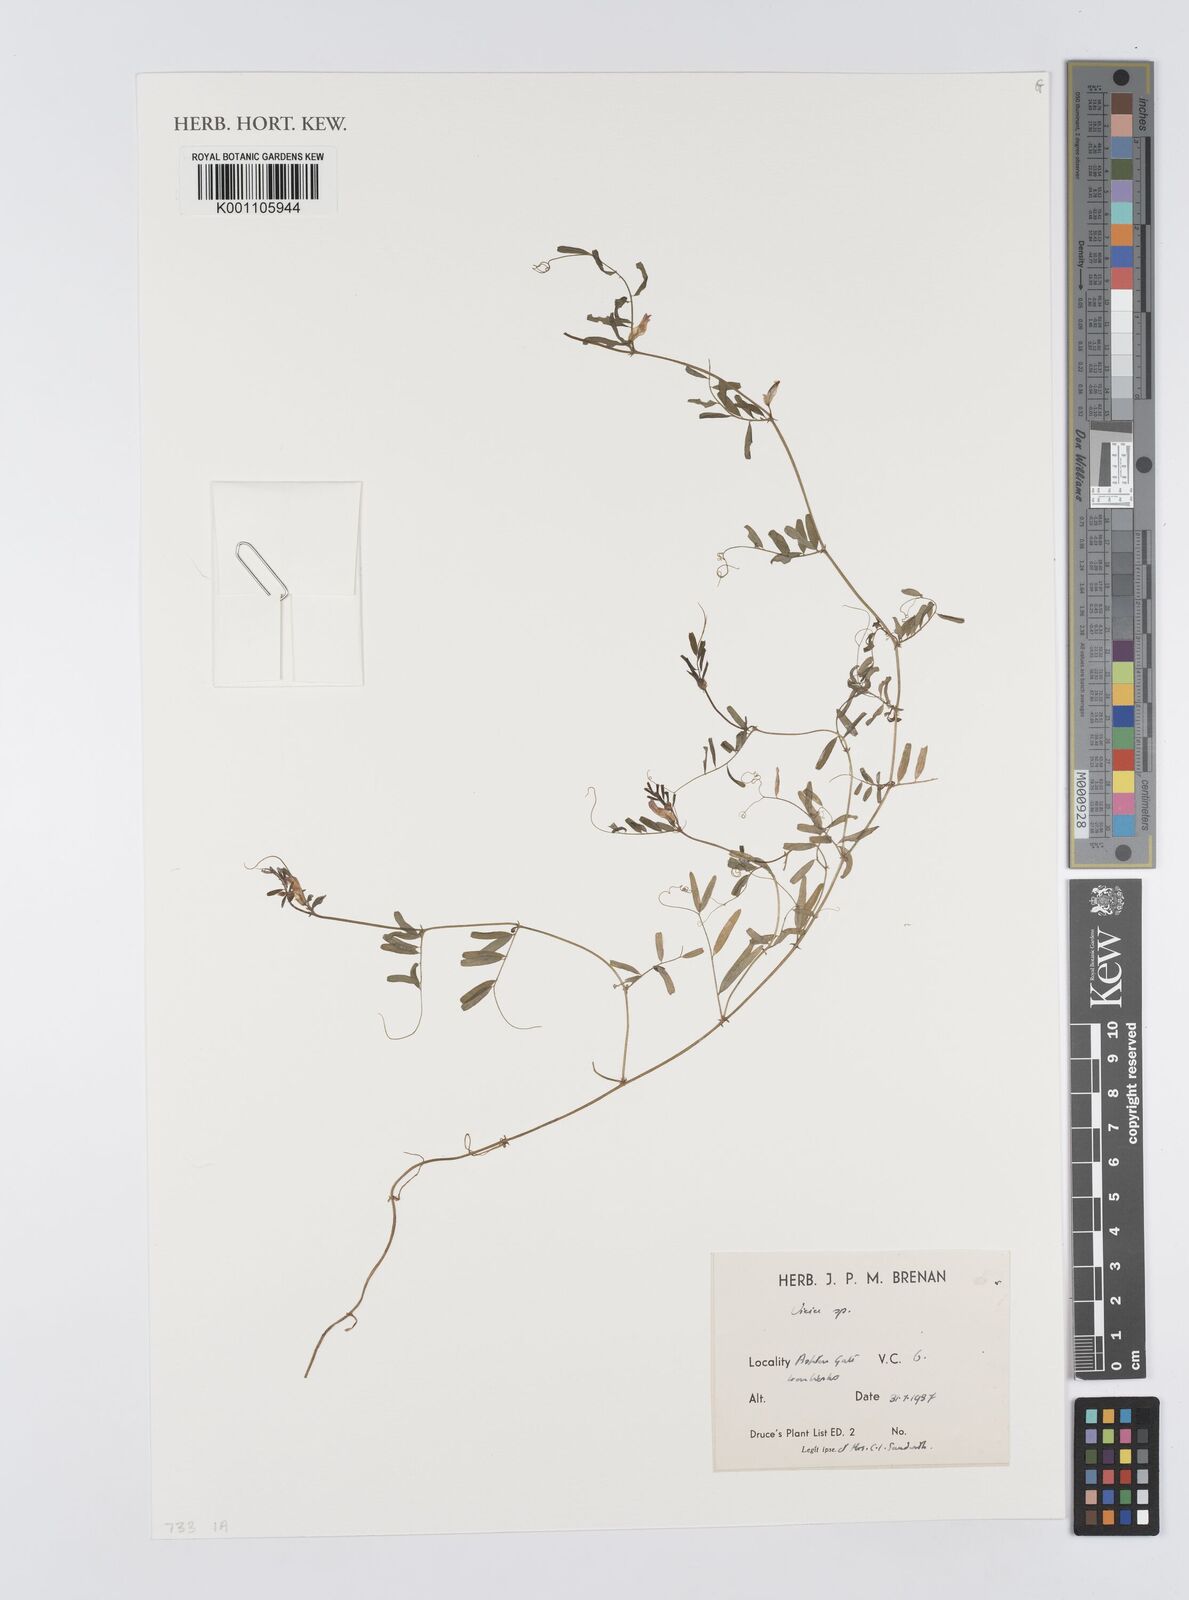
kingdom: Plantae
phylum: Tracheophyta
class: Magnoliopsida
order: Fabales
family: Fabaceae
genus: Vicia
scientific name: Vicia
